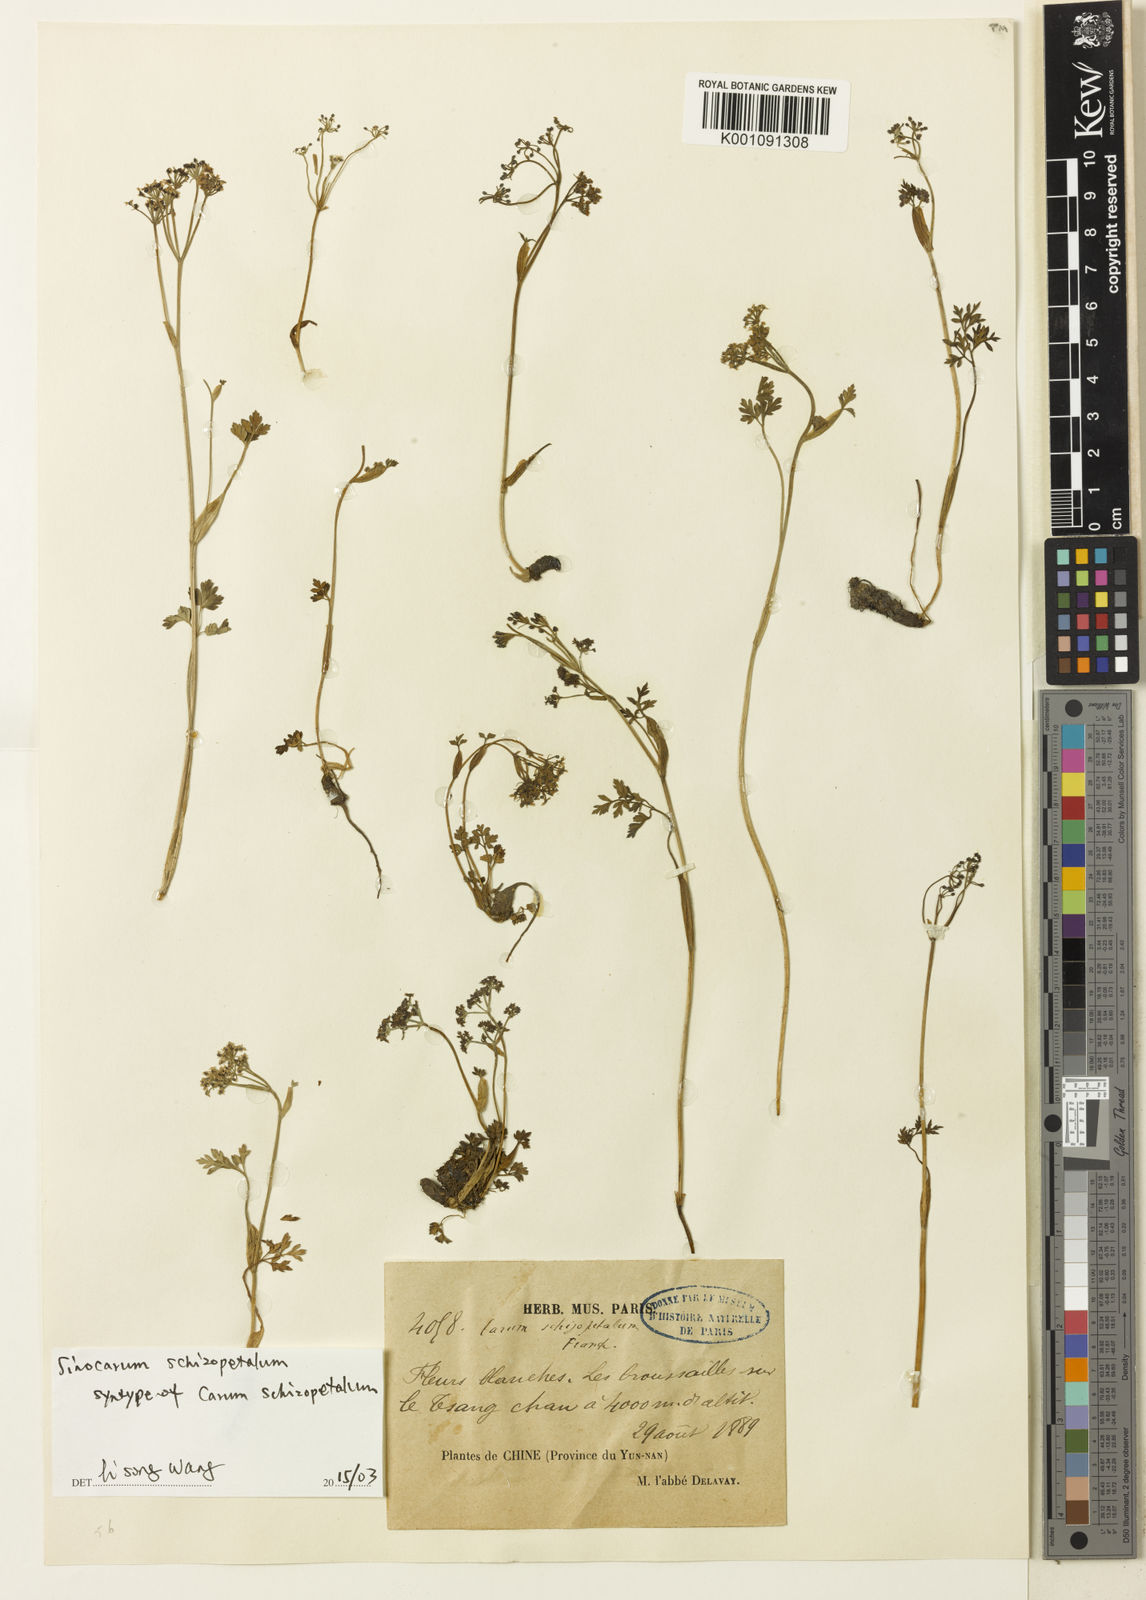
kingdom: Plantae
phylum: Tracheophyta
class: Magnoliopsida
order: Apiales
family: Apiaceae
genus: Sinocarum
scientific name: Sinocarum schizopetalum
